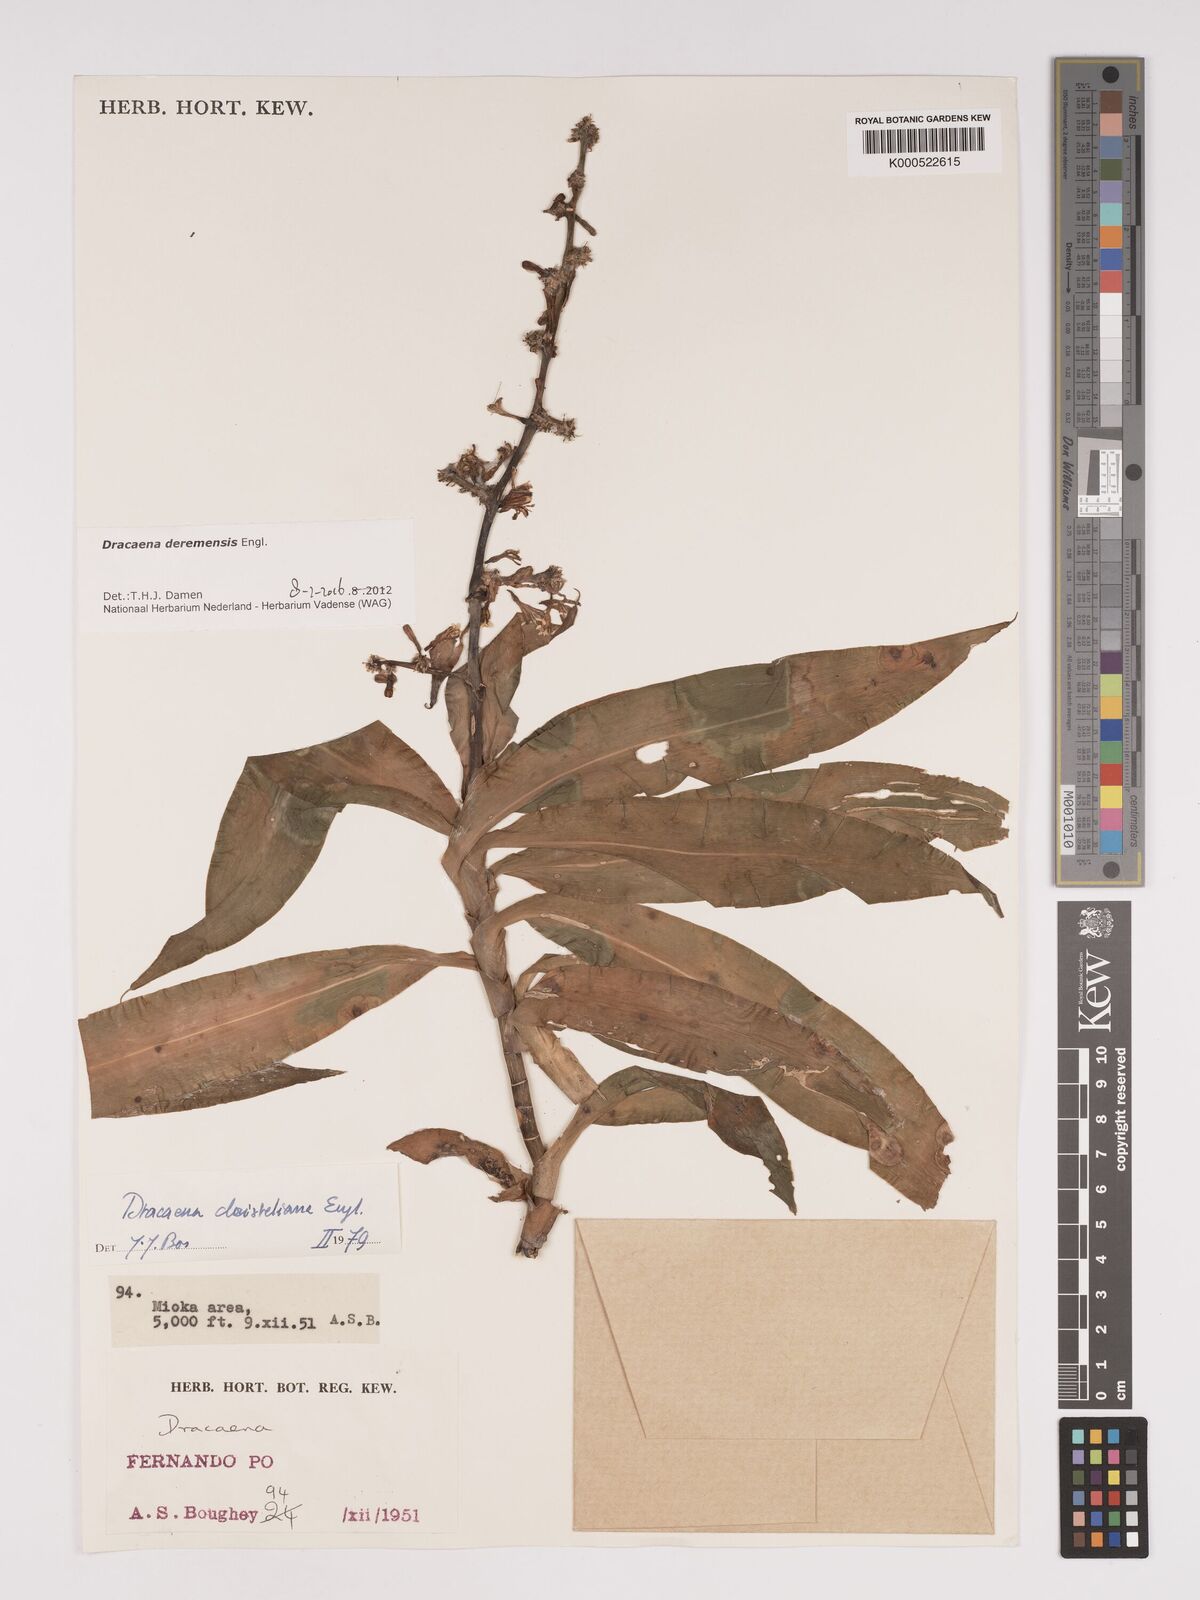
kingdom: Plantae
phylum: Tracheophyta
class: Liliopsida
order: Asparagales
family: Asparagaceae
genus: Dracaena
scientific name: Dracaena fragrans
